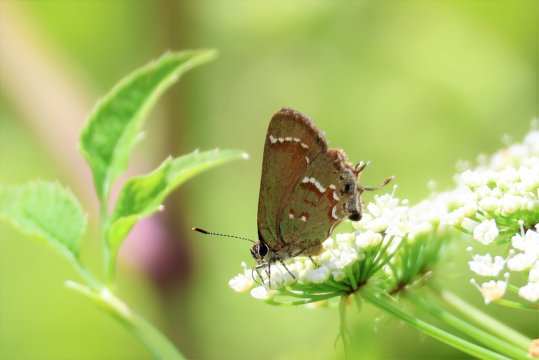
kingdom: Animalia
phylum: Arthropoda
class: Insecta
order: Lepidoptera
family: Lycaenidae
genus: Mitoura
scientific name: Mitoura gryneus
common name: Juniper Hairstreak
